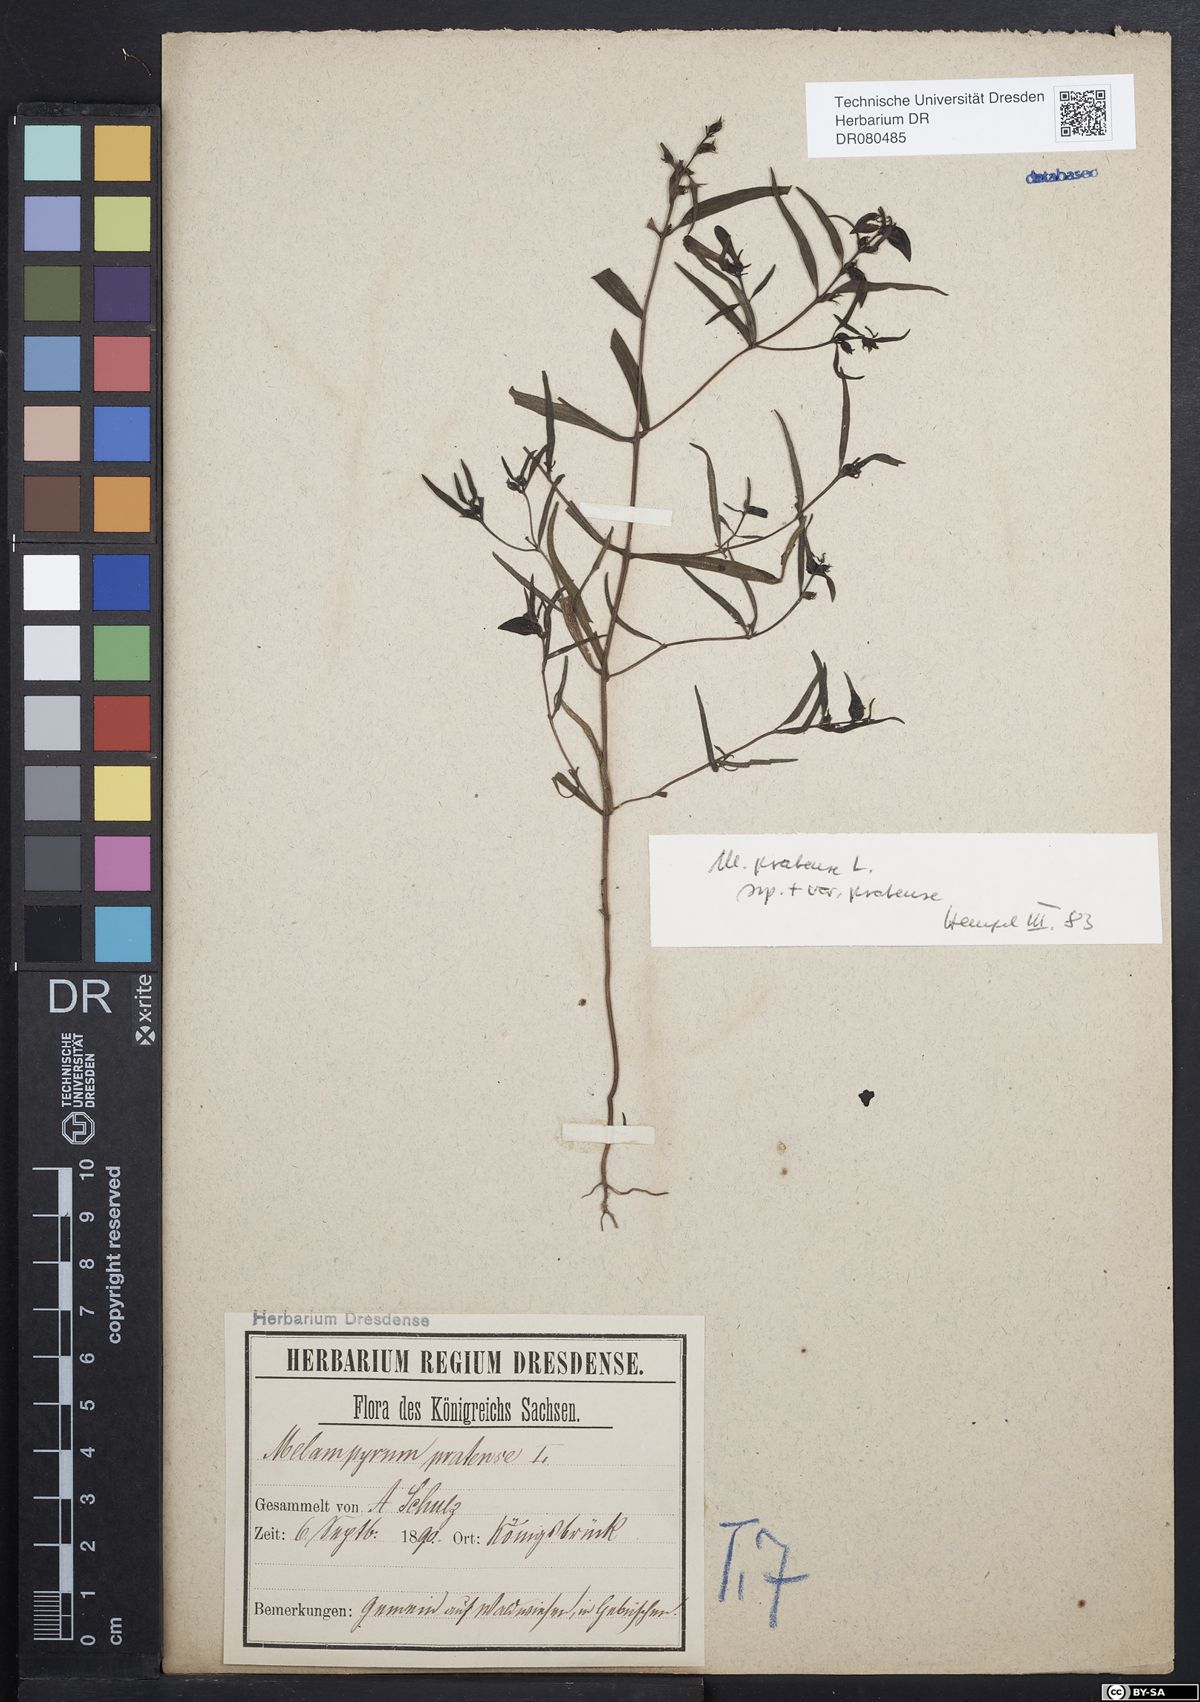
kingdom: Plantae
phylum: Tracheophyta
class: Magnoliopsida
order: Lamiales
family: Orobanchaceae
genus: Melampyrum
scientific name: Melampyrum pratense
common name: Common cow-wheat
